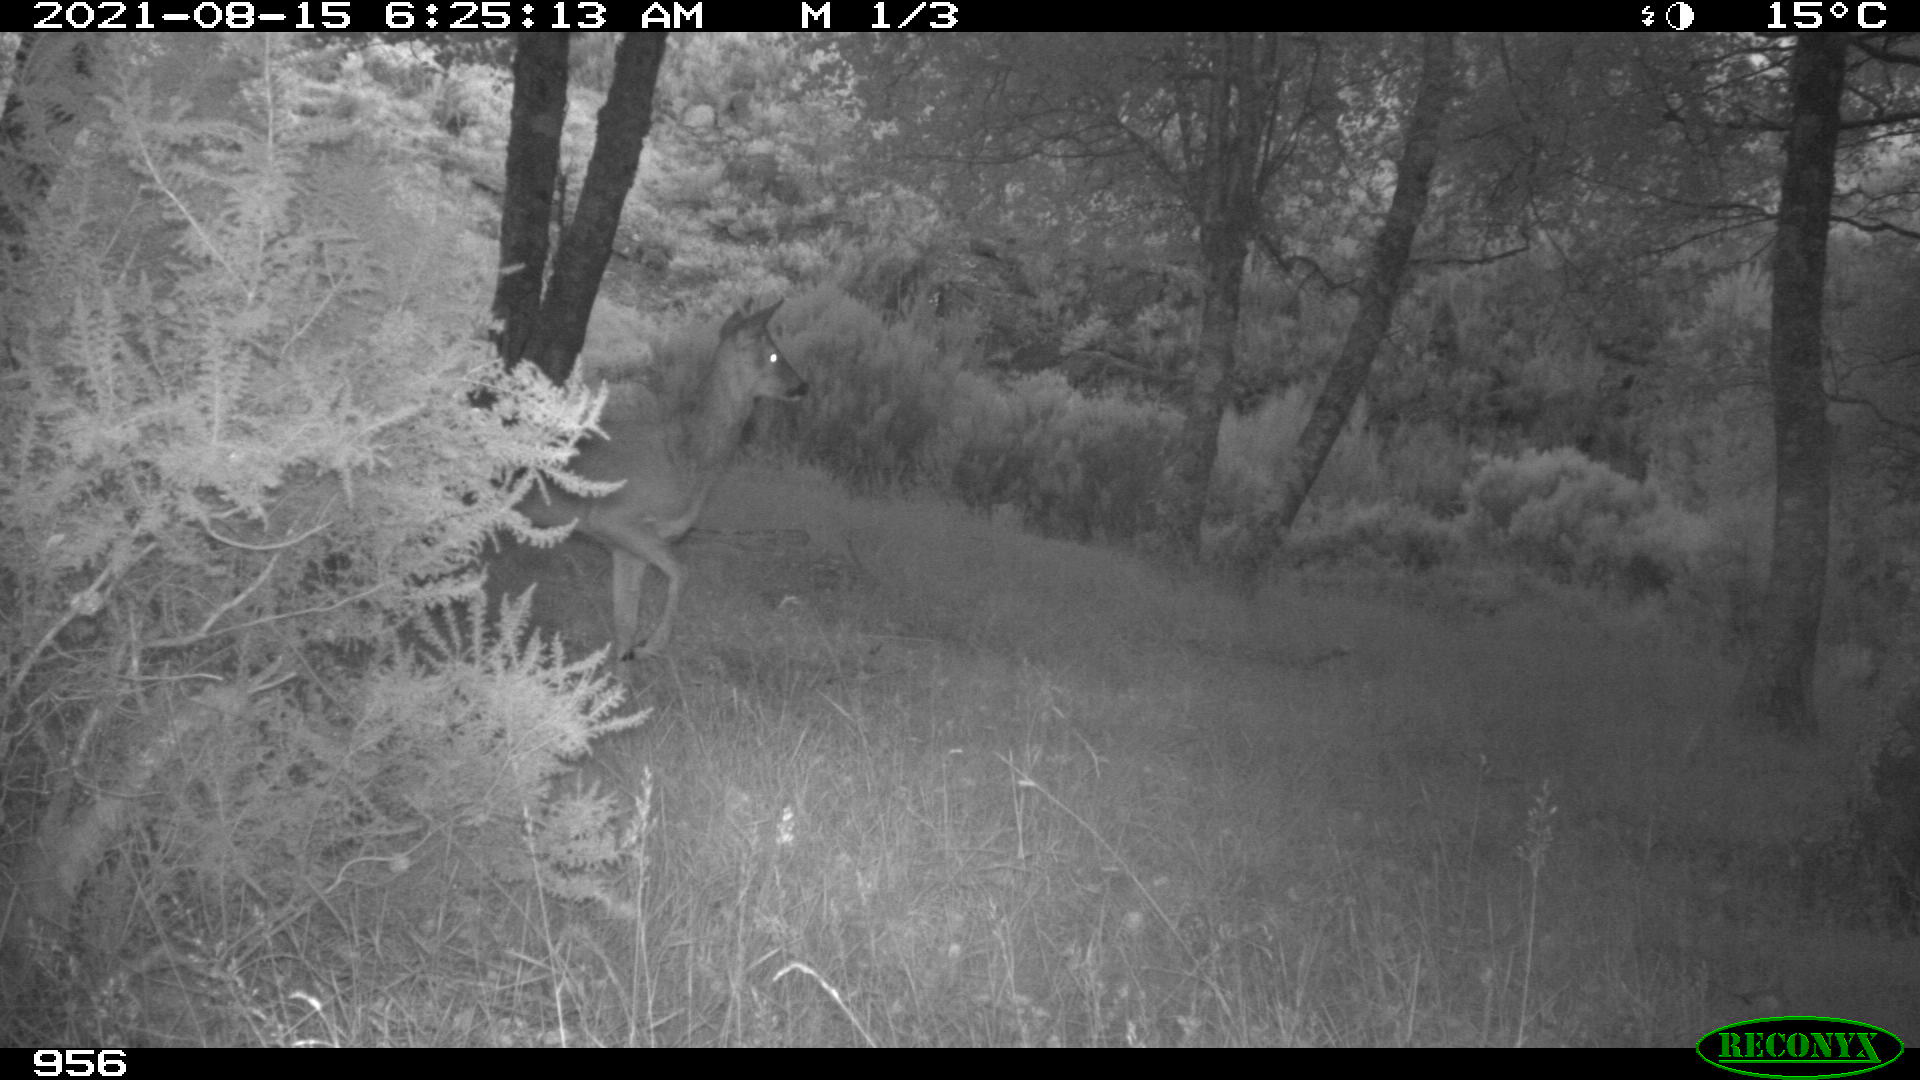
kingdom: Animalia
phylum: Chordata
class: Mammalia
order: Artiodactyla
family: Cervidae
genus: Capreolus
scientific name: Capreolus capreolus
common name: Western roe deer
